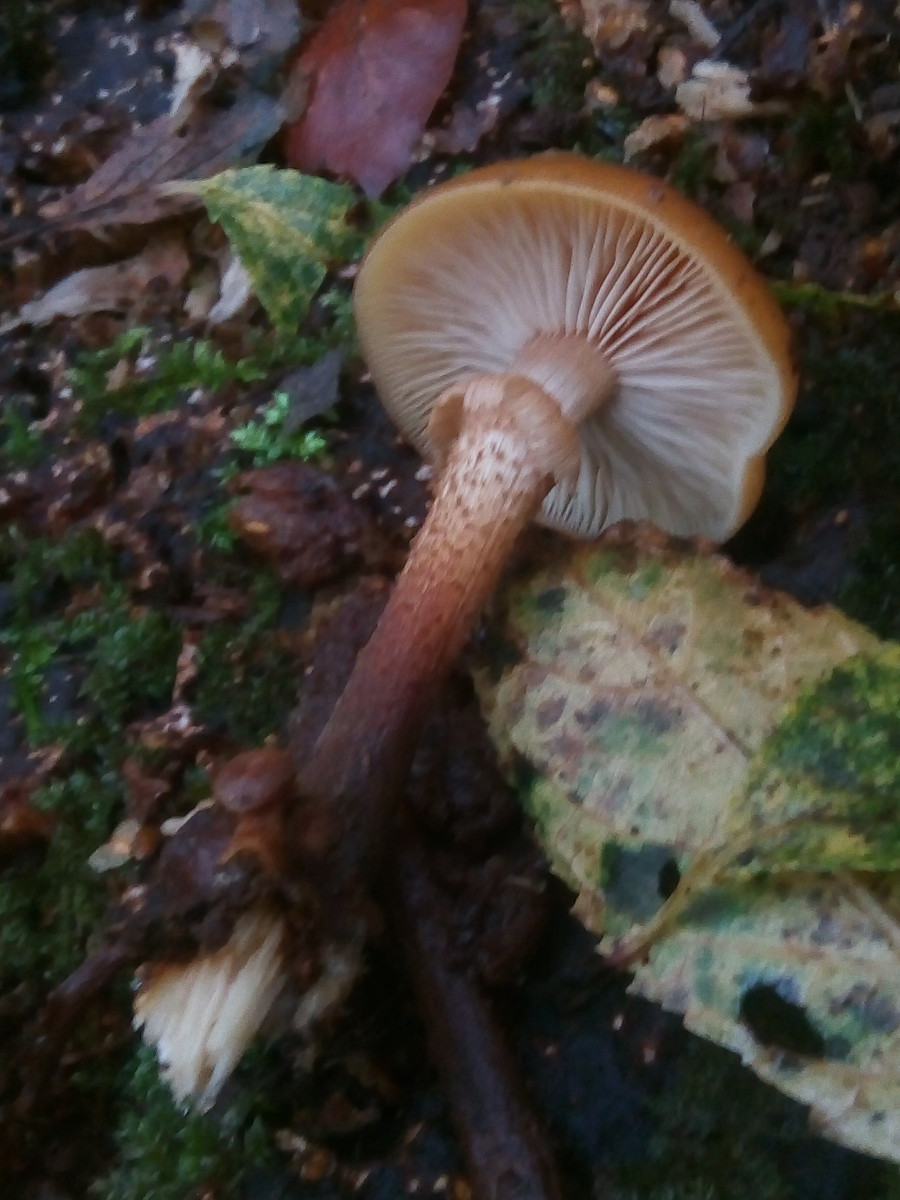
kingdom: Fungi
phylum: Basidiomycota
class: Agaricomycetes
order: Agaricales
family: Strophariaceae
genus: Kuehneromyces
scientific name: Kuehneromyces mutabilis
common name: foranderlig skælhat
